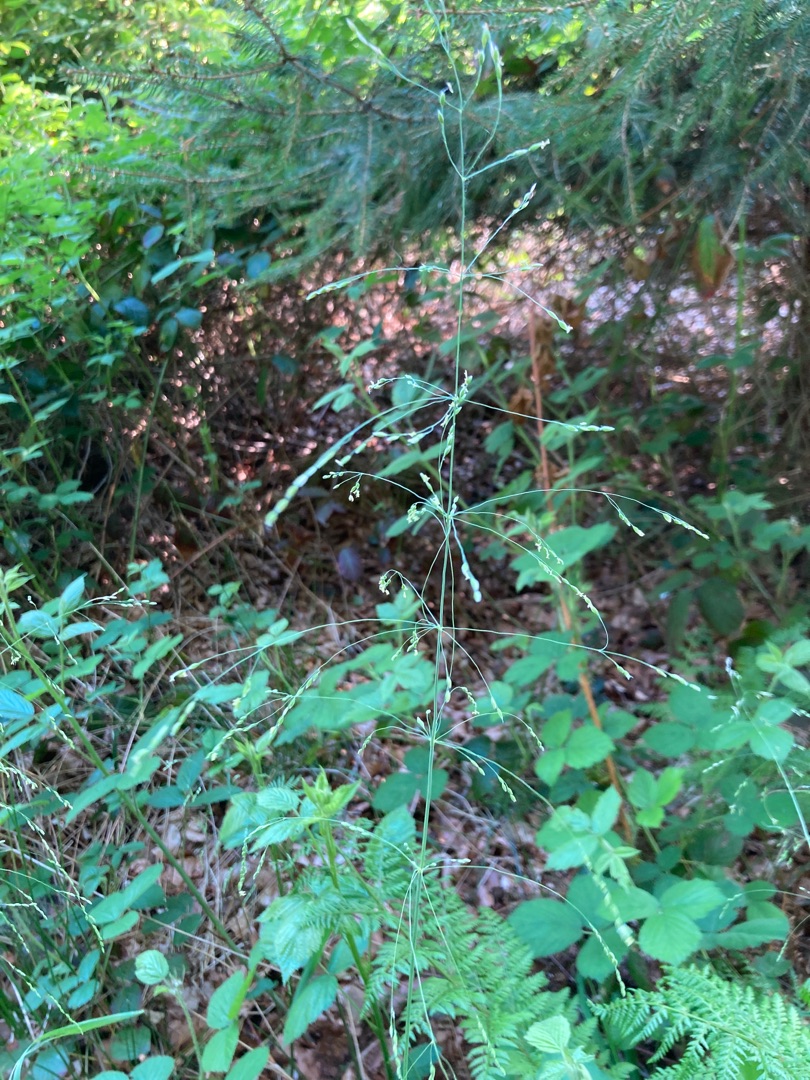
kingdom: Plantae
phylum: Tracheophyta
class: Liliopsida
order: Poales
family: Poaceae
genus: Milium
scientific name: Milium effusum
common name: Miliegræs
